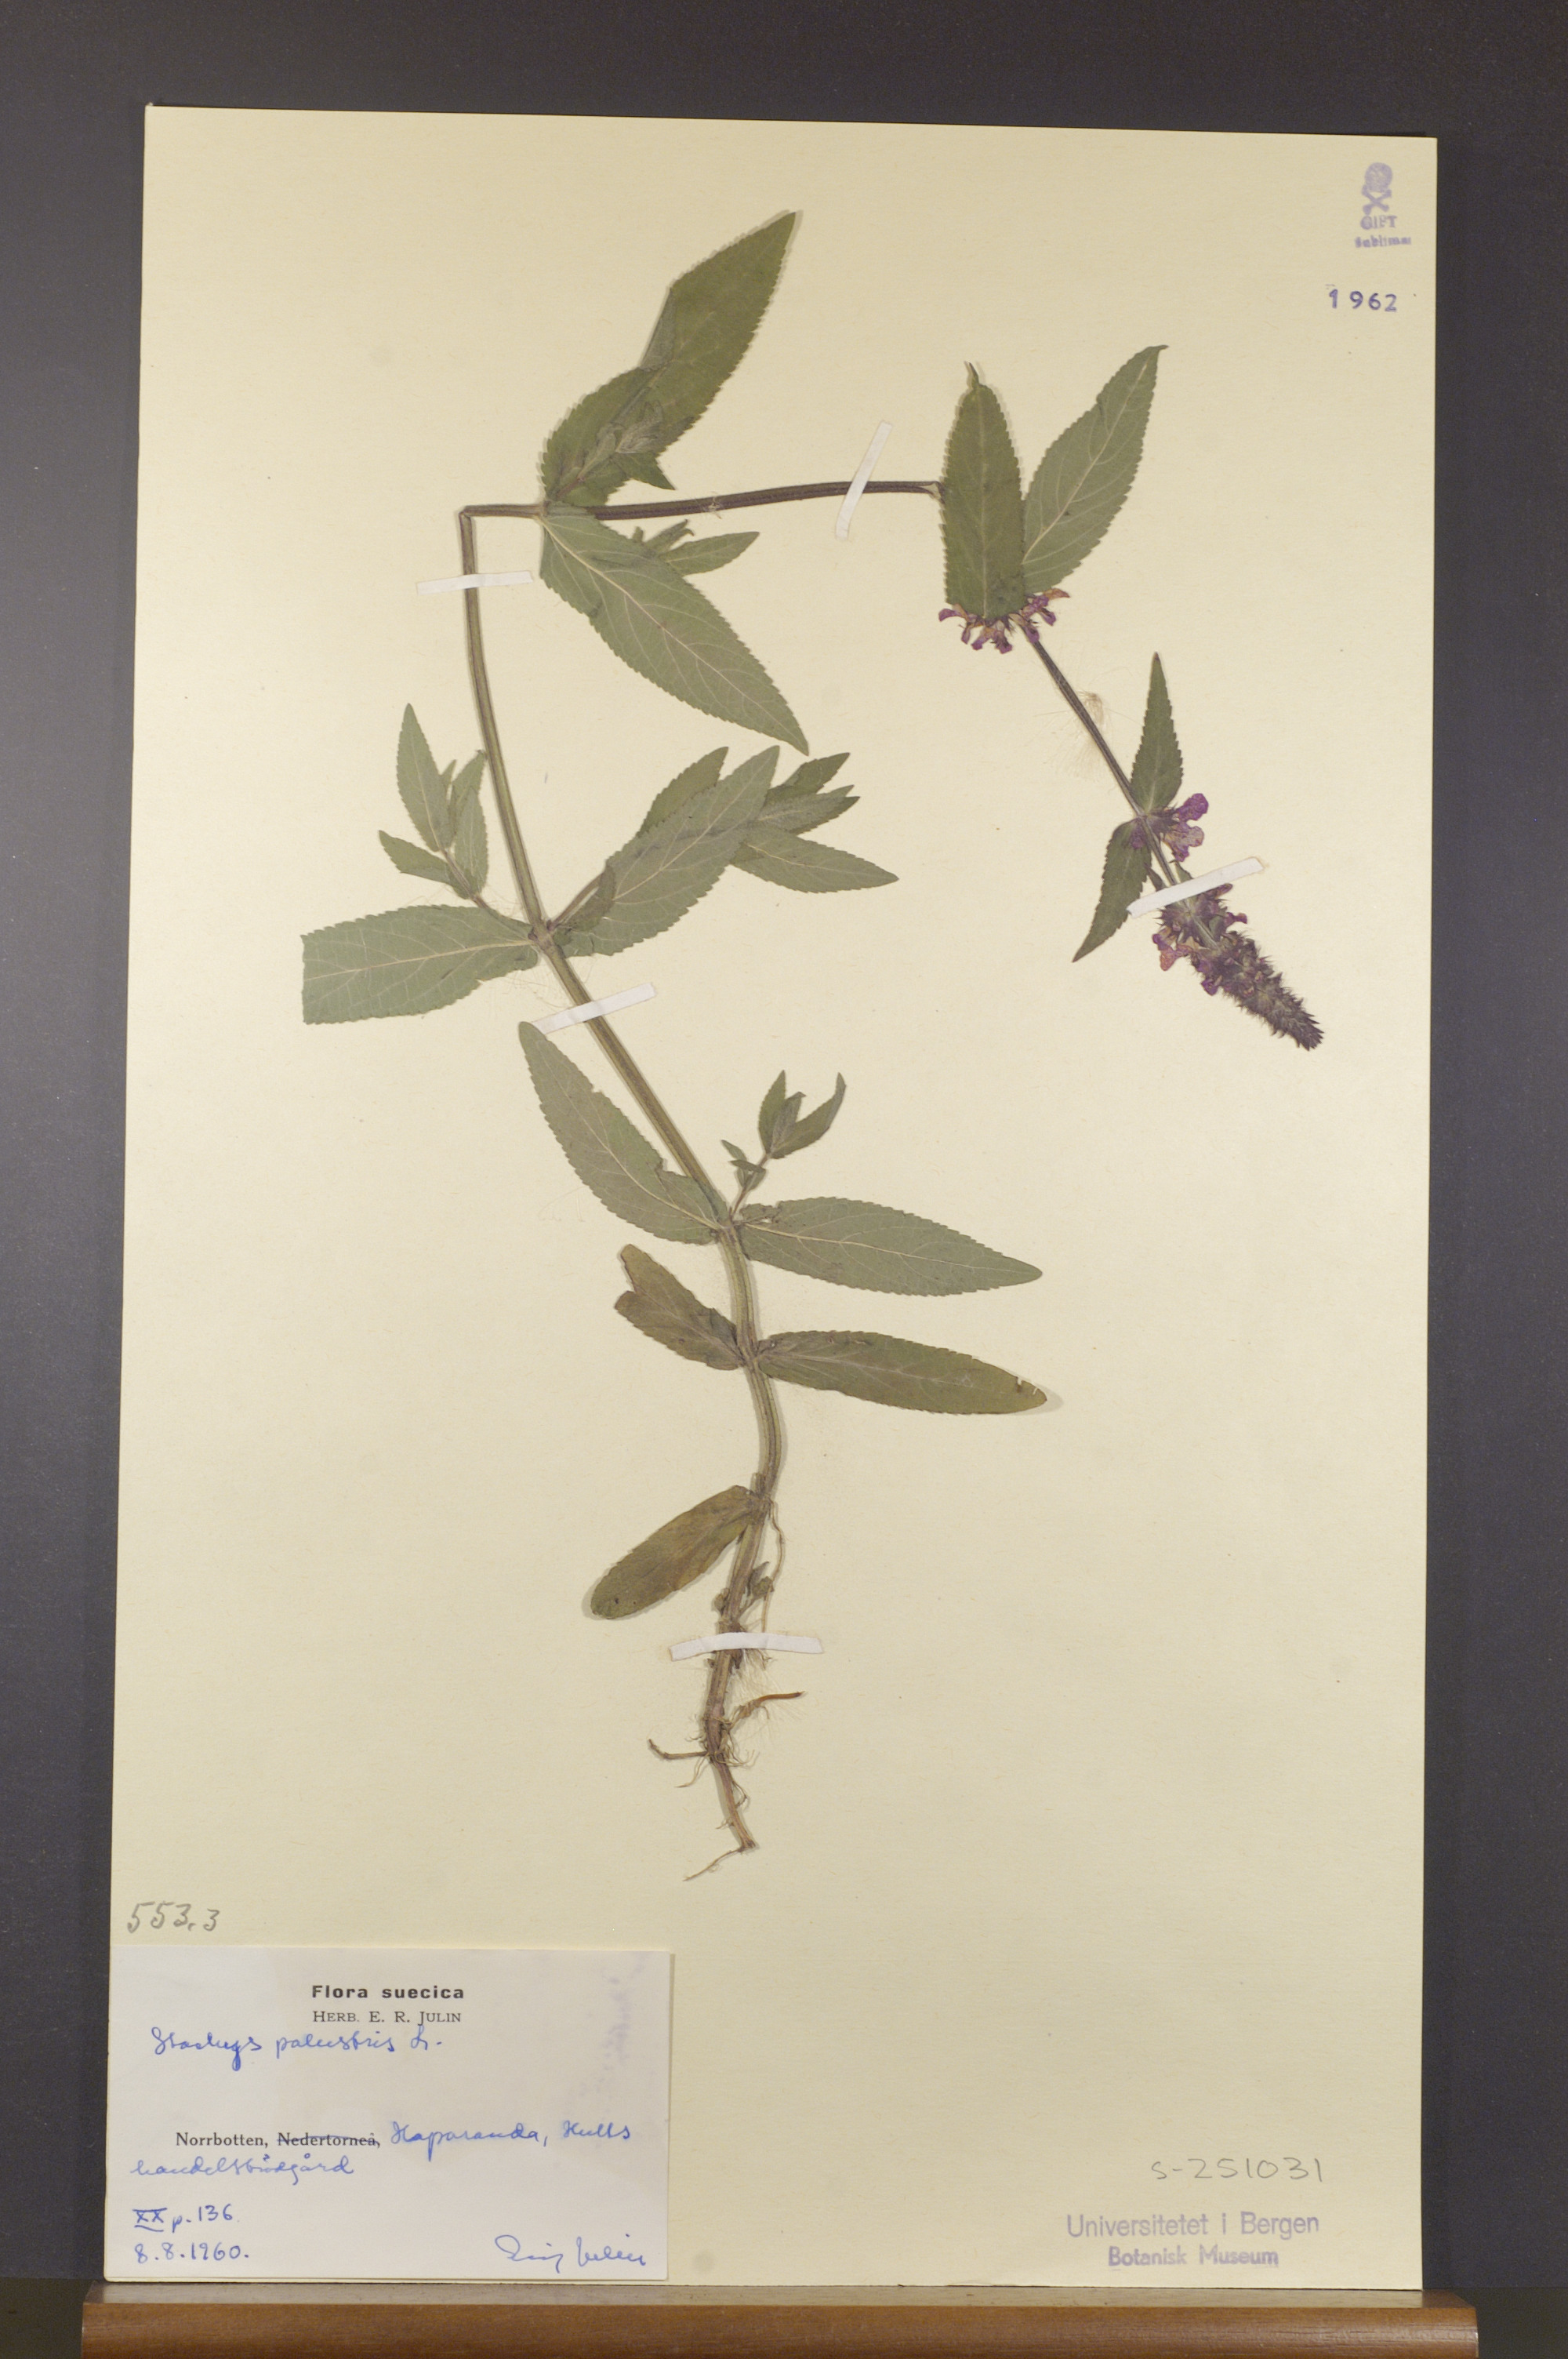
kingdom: Plantae
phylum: Tracheophyta
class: Magnoliopsida
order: Lamiales
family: Lamiaceae
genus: Stachys
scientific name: Stachys palustris
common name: Marsh woundwort
